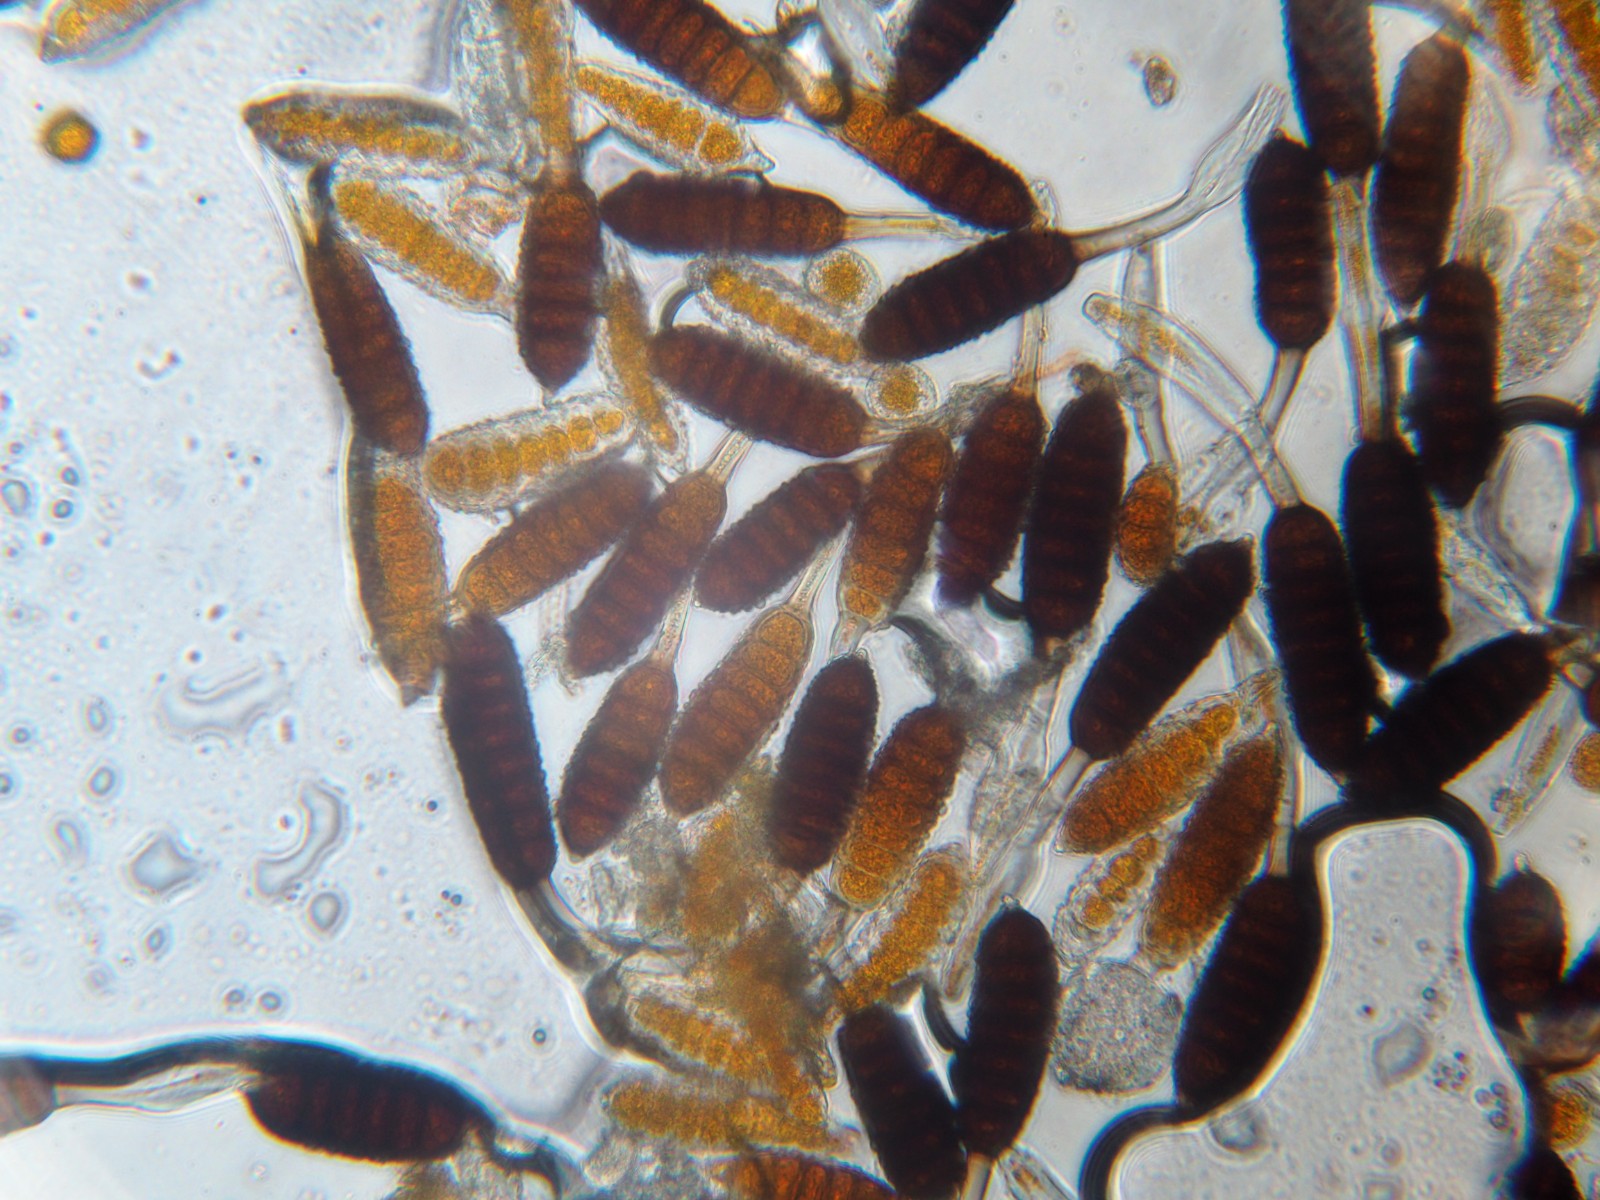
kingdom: Fungi
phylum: Basidiomycota
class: Pucciniomycetes
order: Pucciniales
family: Phragmidiaceae
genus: Phragmidium
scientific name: Phragmidium tuberculatum
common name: Rose rust
